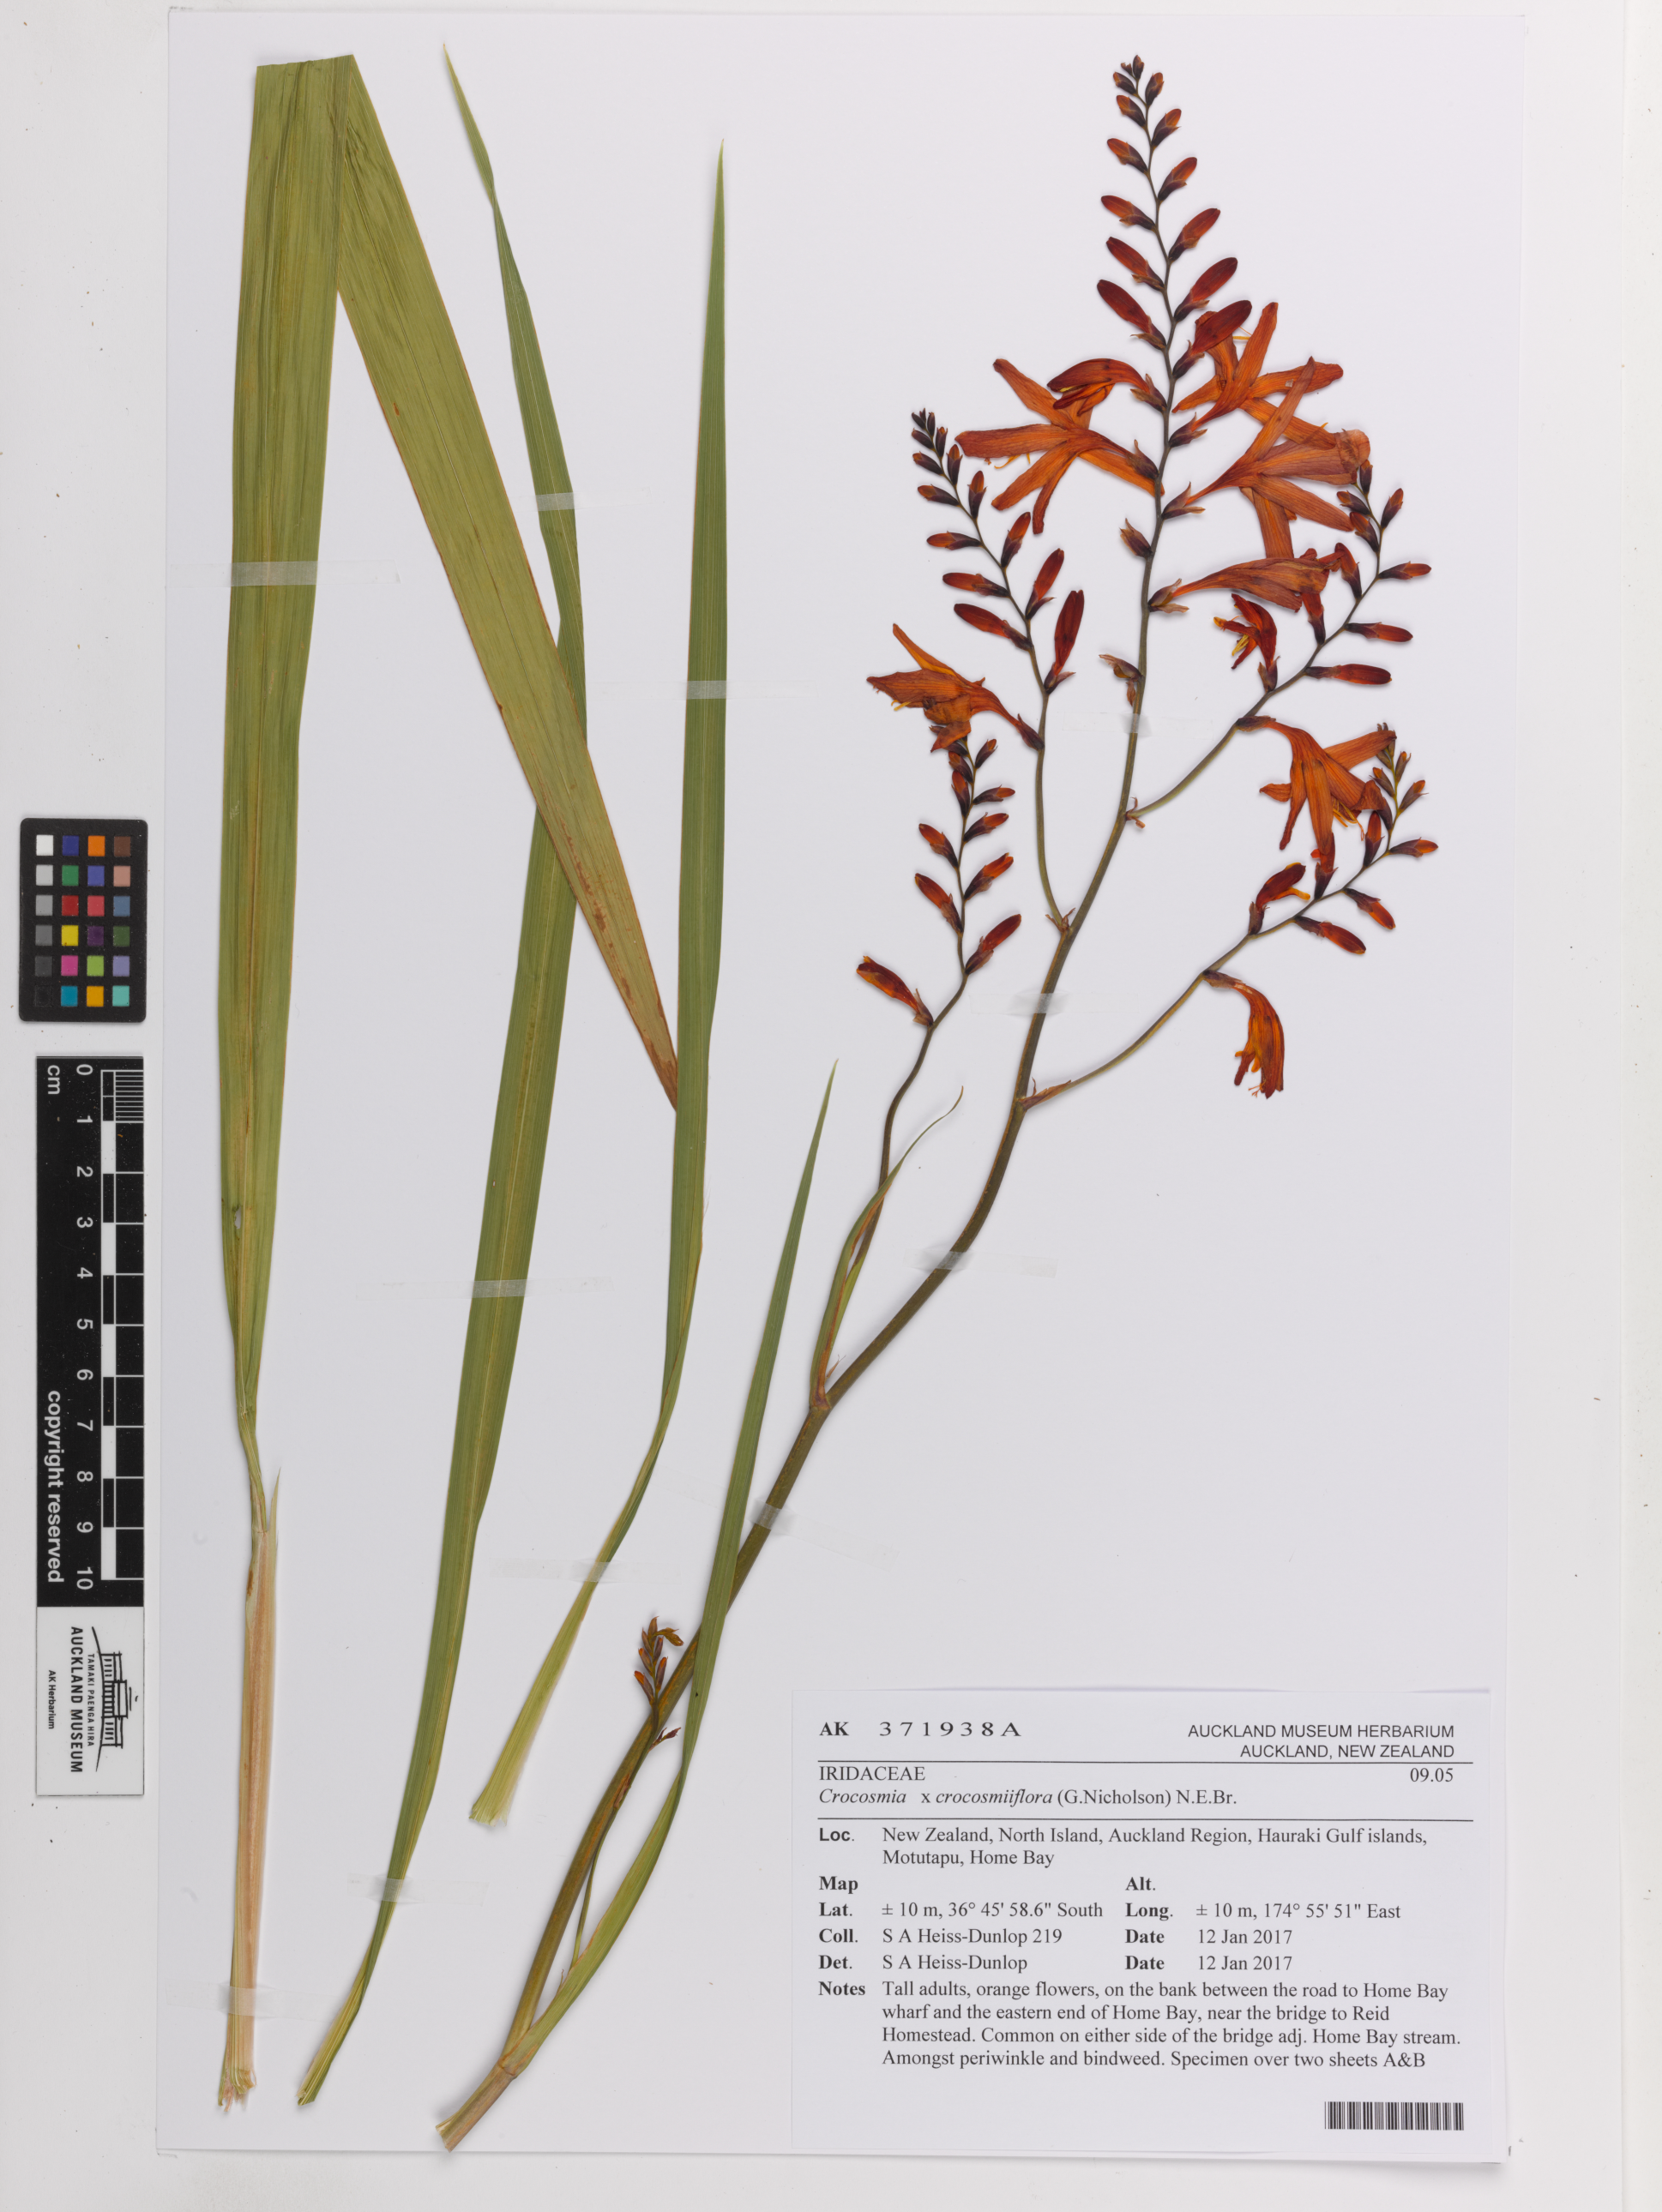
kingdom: Plantae
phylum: Tracheophyta
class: Liliopsida
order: Asparagales
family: Iridaceae
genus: Crocosmia
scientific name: Crocosmia crocosmiiflora
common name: Montbretia
